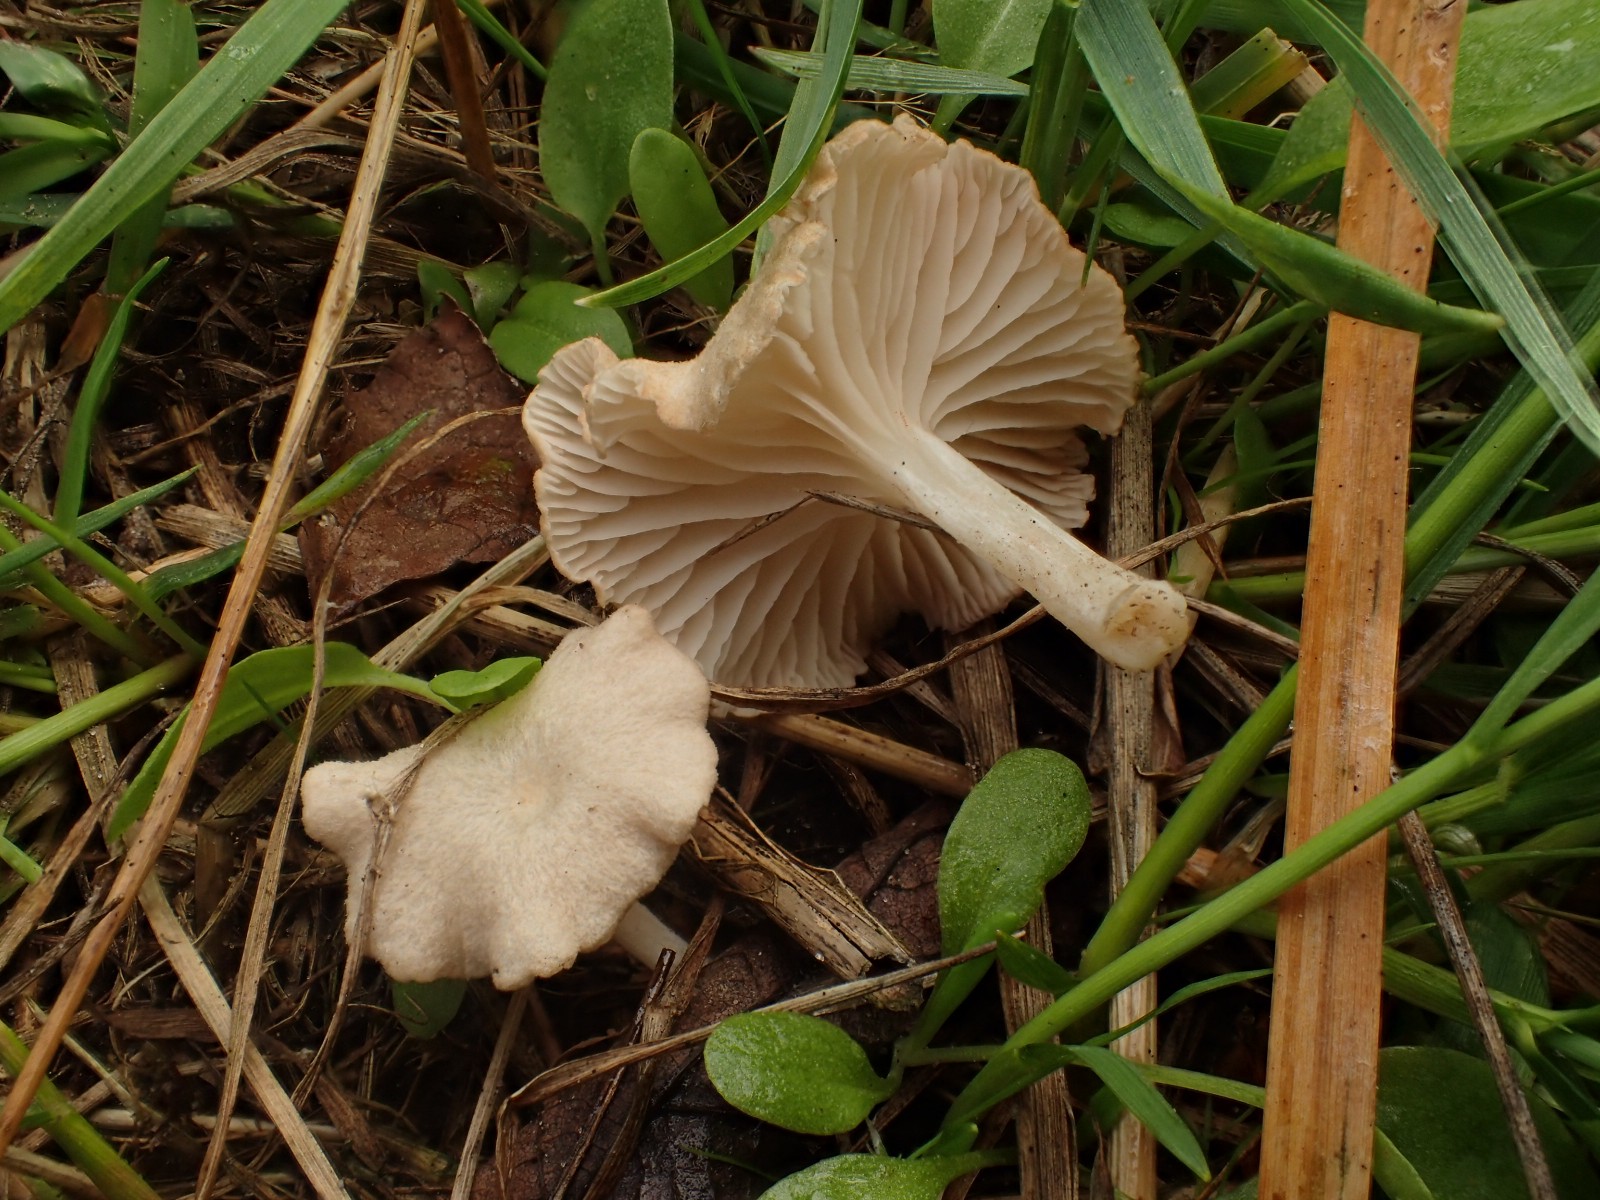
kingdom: Fungi
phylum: Basidiomycota
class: Agaricomycetes
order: Agaricales
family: Entolomataceae
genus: Entoloma
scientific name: Entoloma neglectum
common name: bleg rødblad
